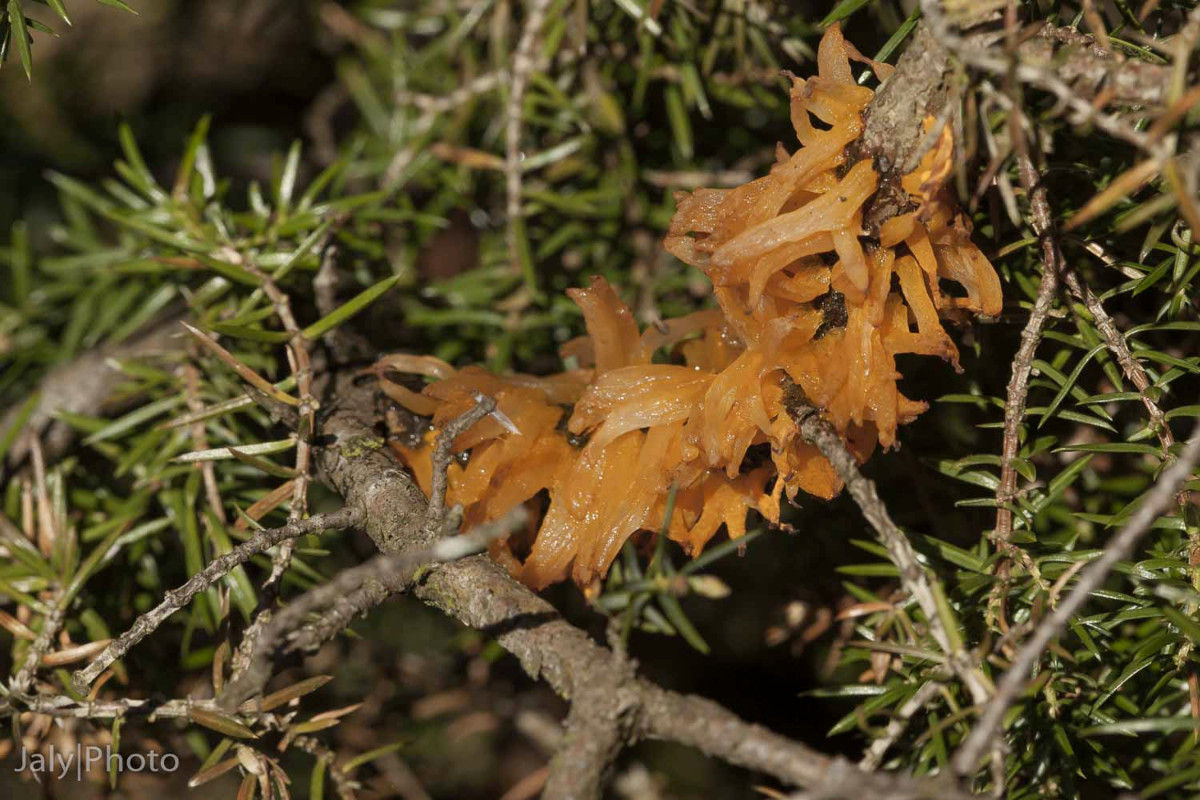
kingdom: Fungi
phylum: Basidiomycota
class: Pucciniomycetes
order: Pucciniales
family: Gymnosporangiaceae
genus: Gymnosporangium
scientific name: Gymnosporangium clavariiforme
